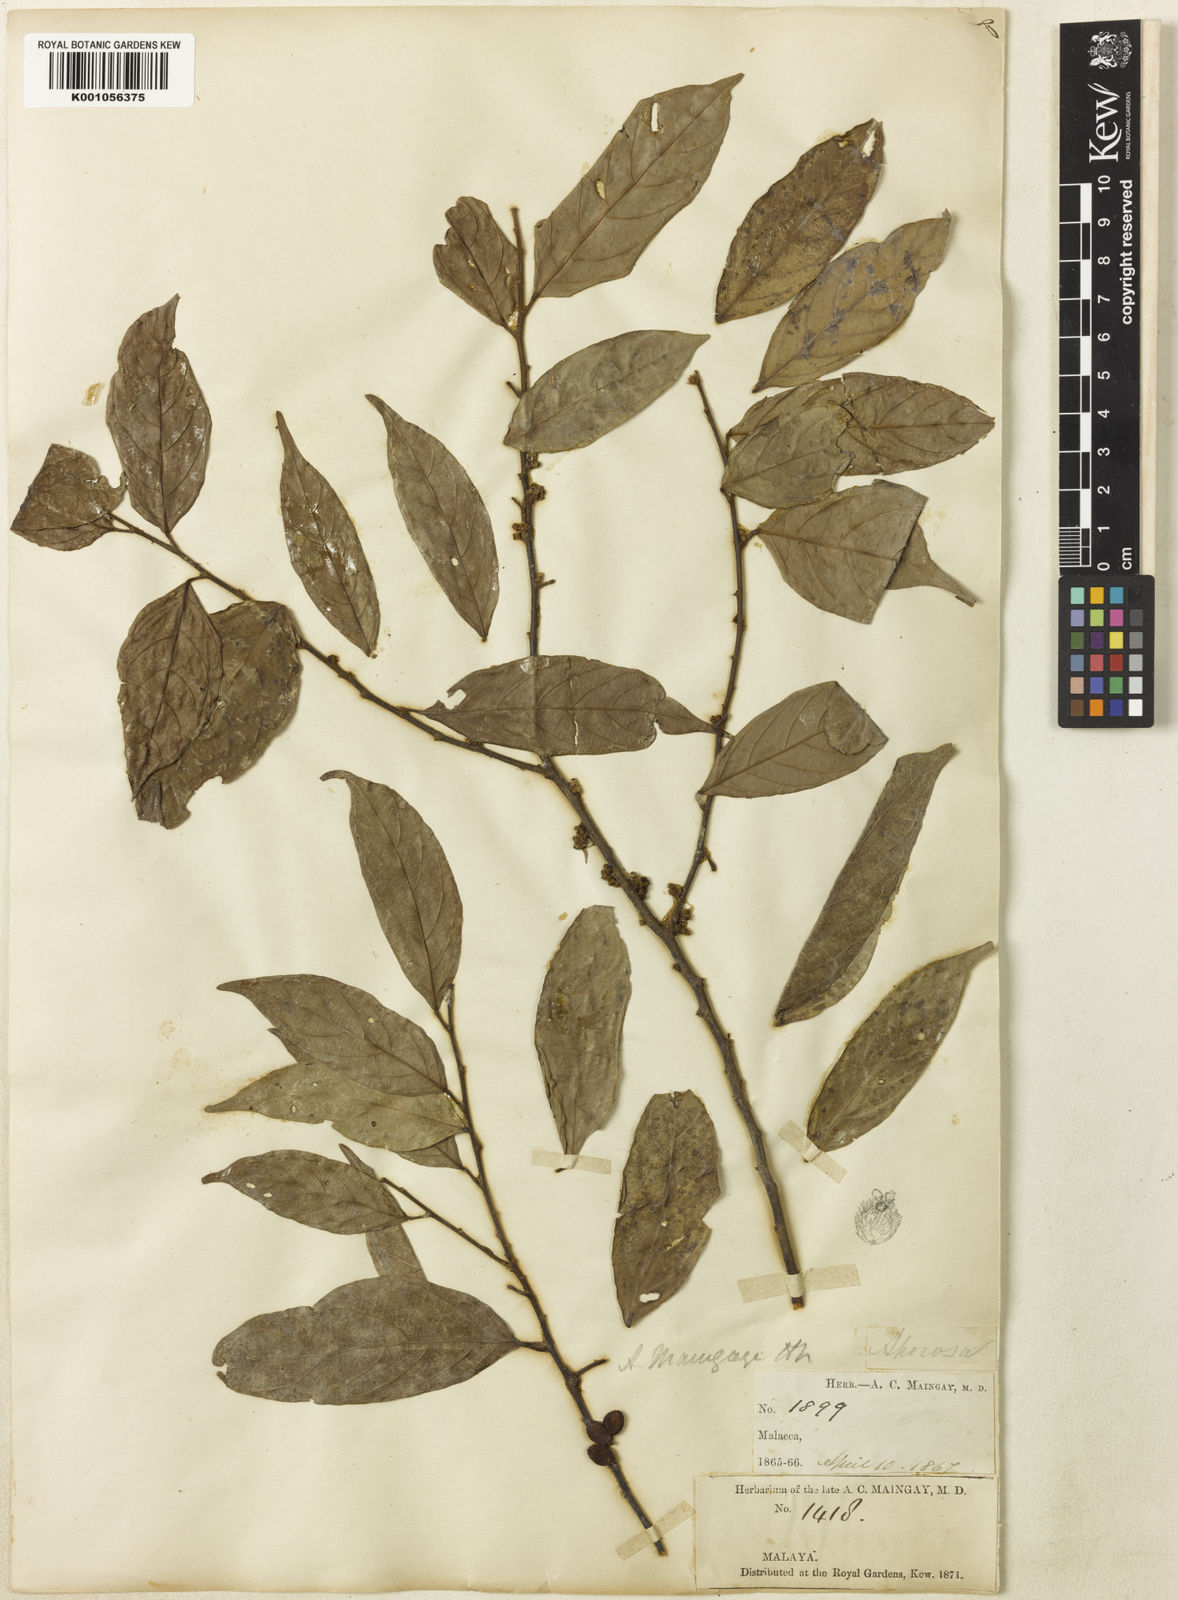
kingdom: Plantae
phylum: Tracheophyta
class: Magnoliopsida
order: Malpighiales
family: Phyllanthaceae
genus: Aporosa
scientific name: Aporosa maingayi
